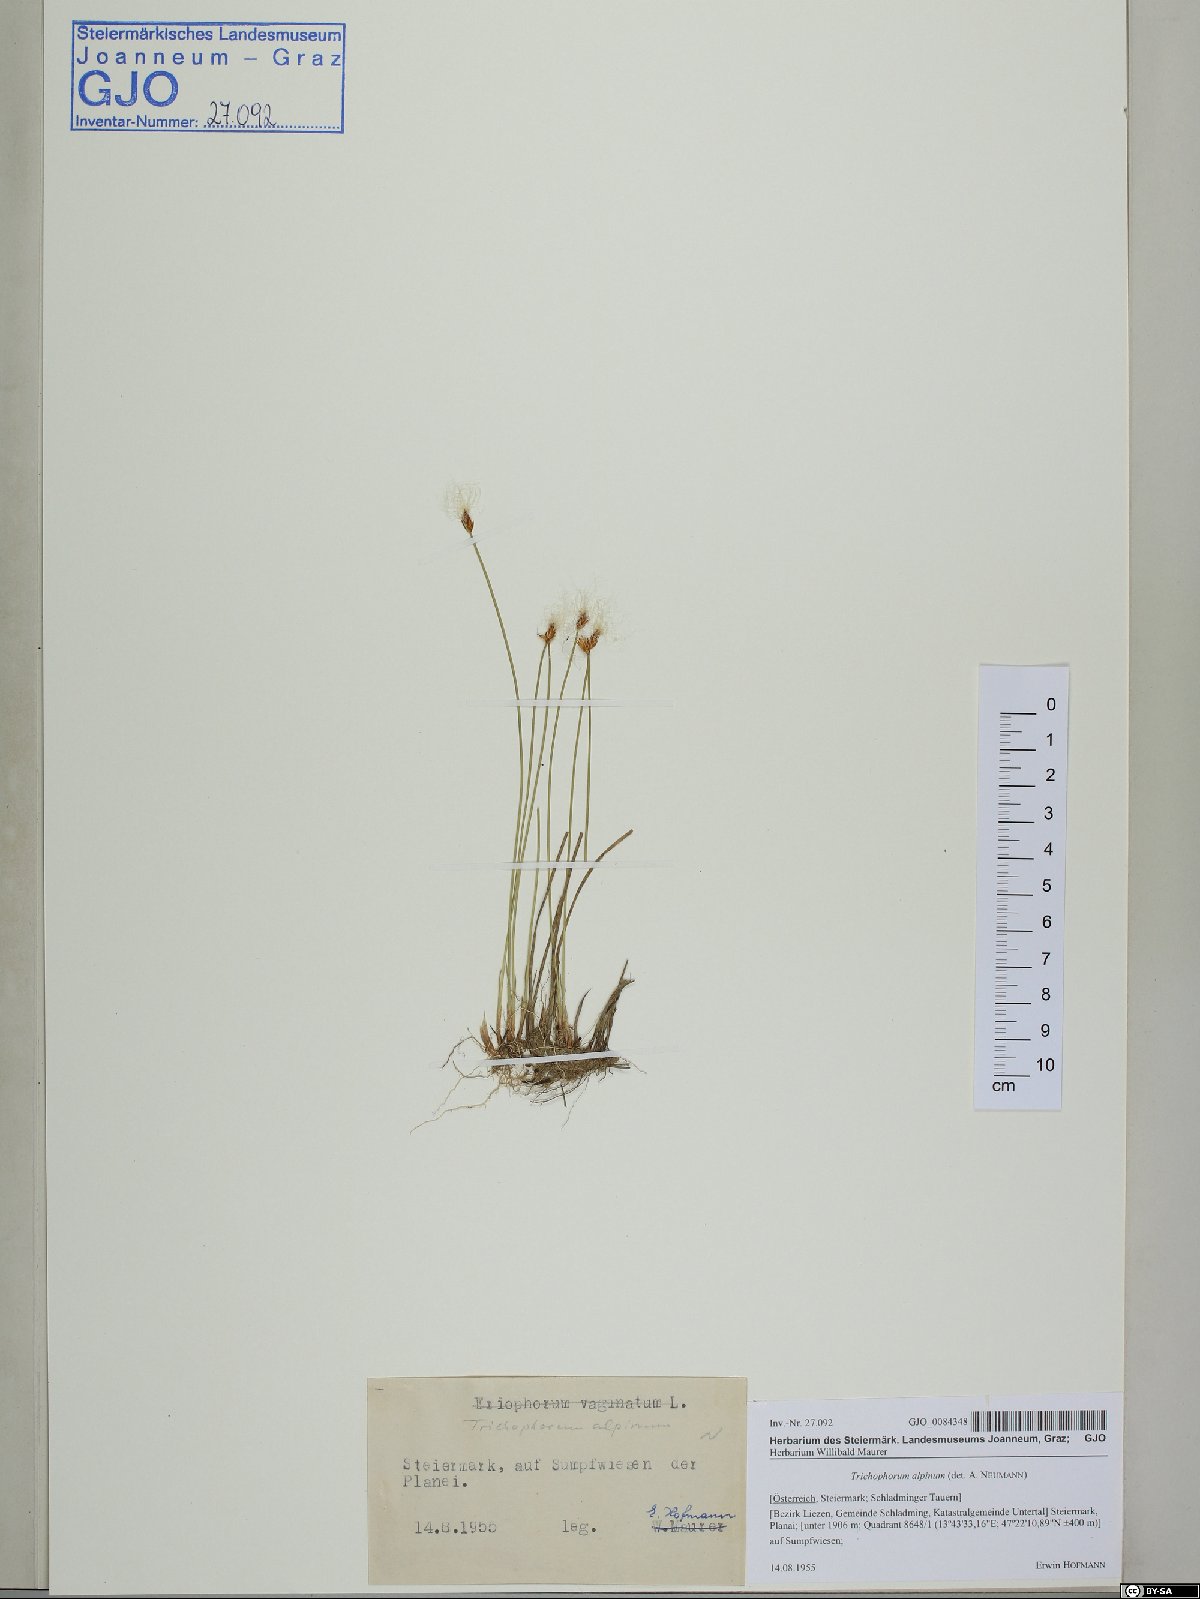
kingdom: Plantae
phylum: Tracheophyta
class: Liliopsida
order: Poales
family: Cyperaceae
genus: Trichophorum
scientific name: Trichophorum alpinum
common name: Alpine bulrush
